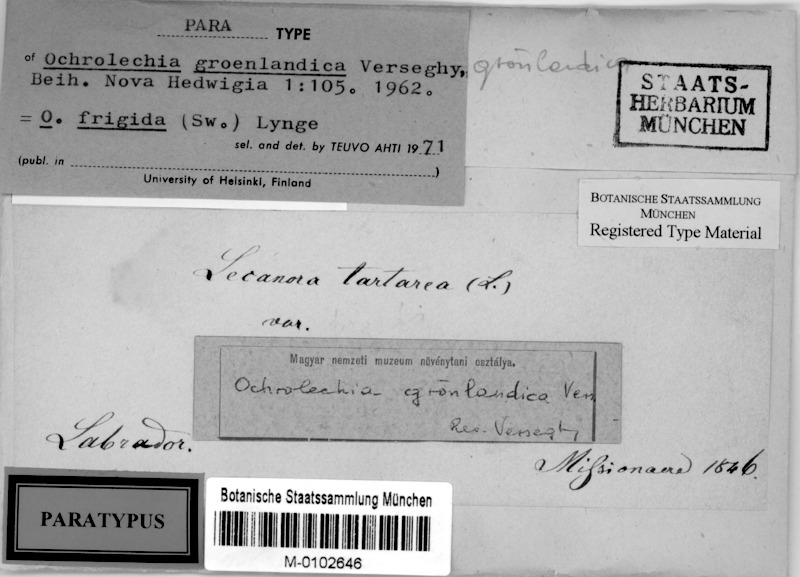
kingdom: Fungi
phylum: Ascomycota
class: Lecanoromycetes
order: Pertusariales
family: Ochrolechiaceae
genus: Ochrolechia
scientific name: Ochrolechia frigida
